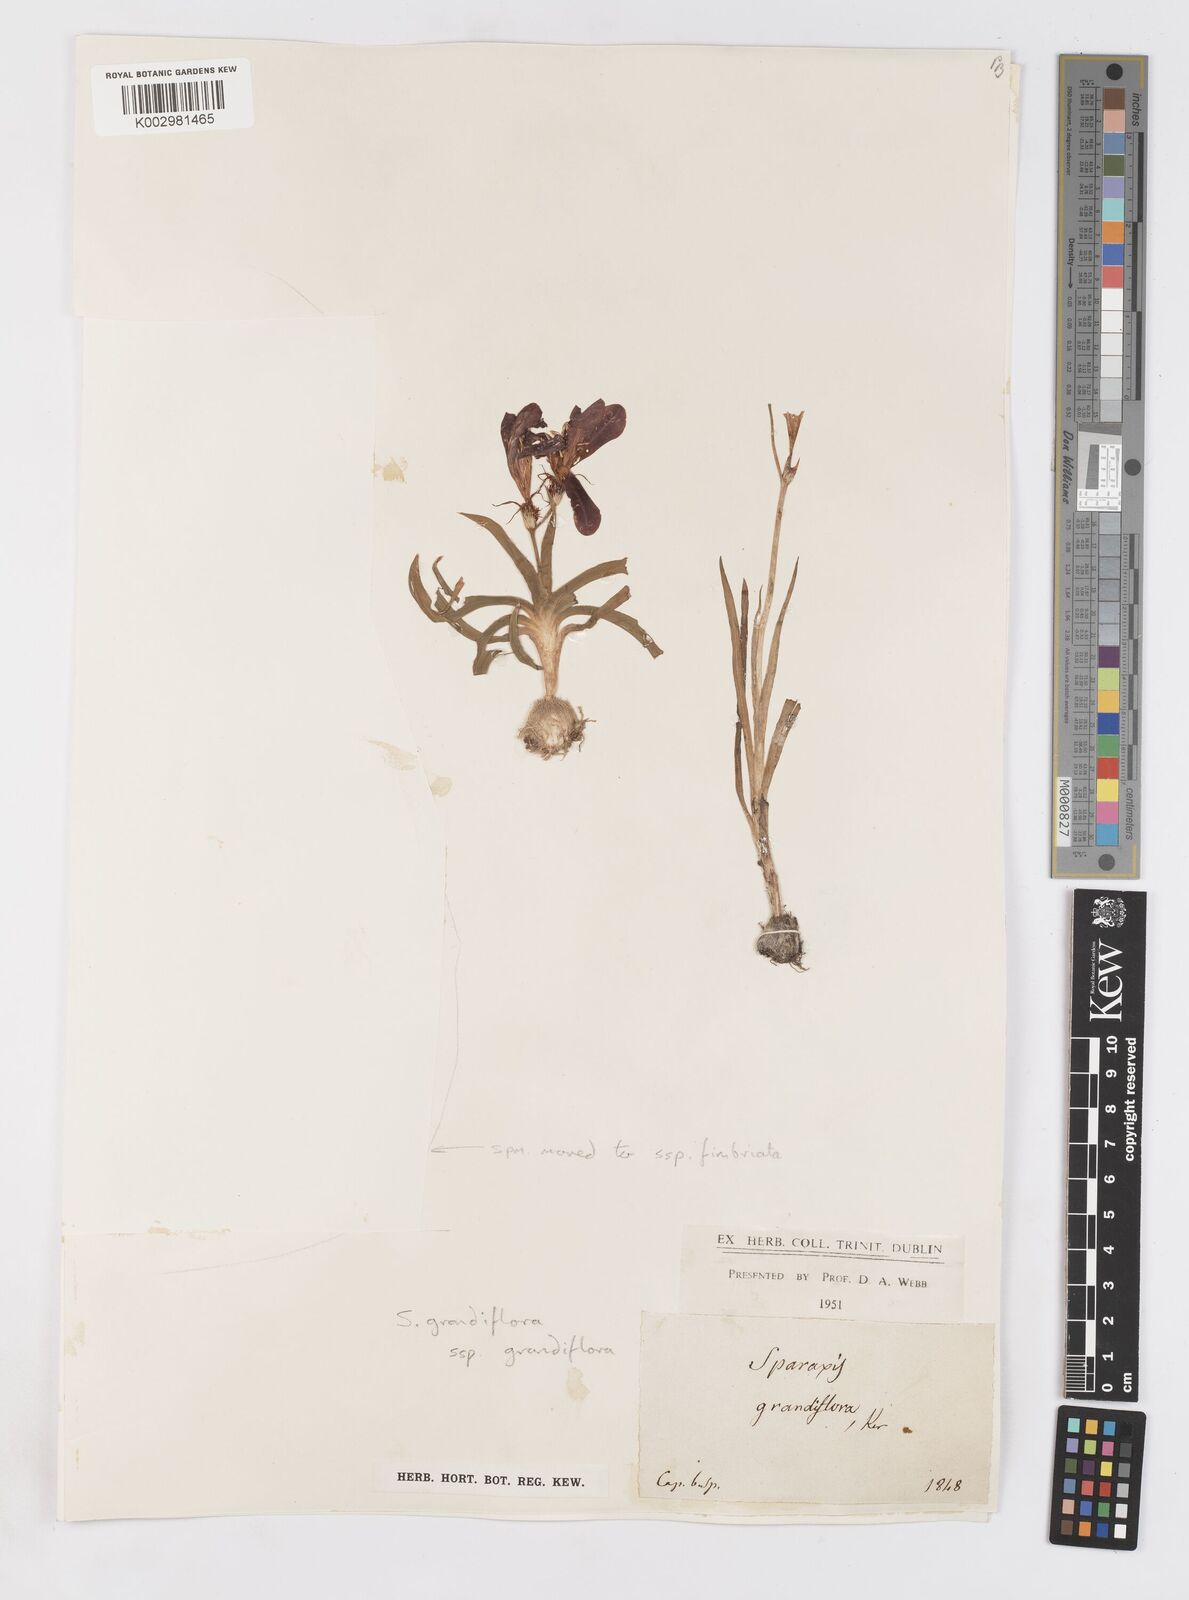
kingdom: Plantae
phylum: Tracheophyta
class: Liliopsida
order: Asparagales
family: Iridaceae
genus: Sparaxis
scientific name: Sparaxis grandiflora
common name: Plain harlequin-flower
